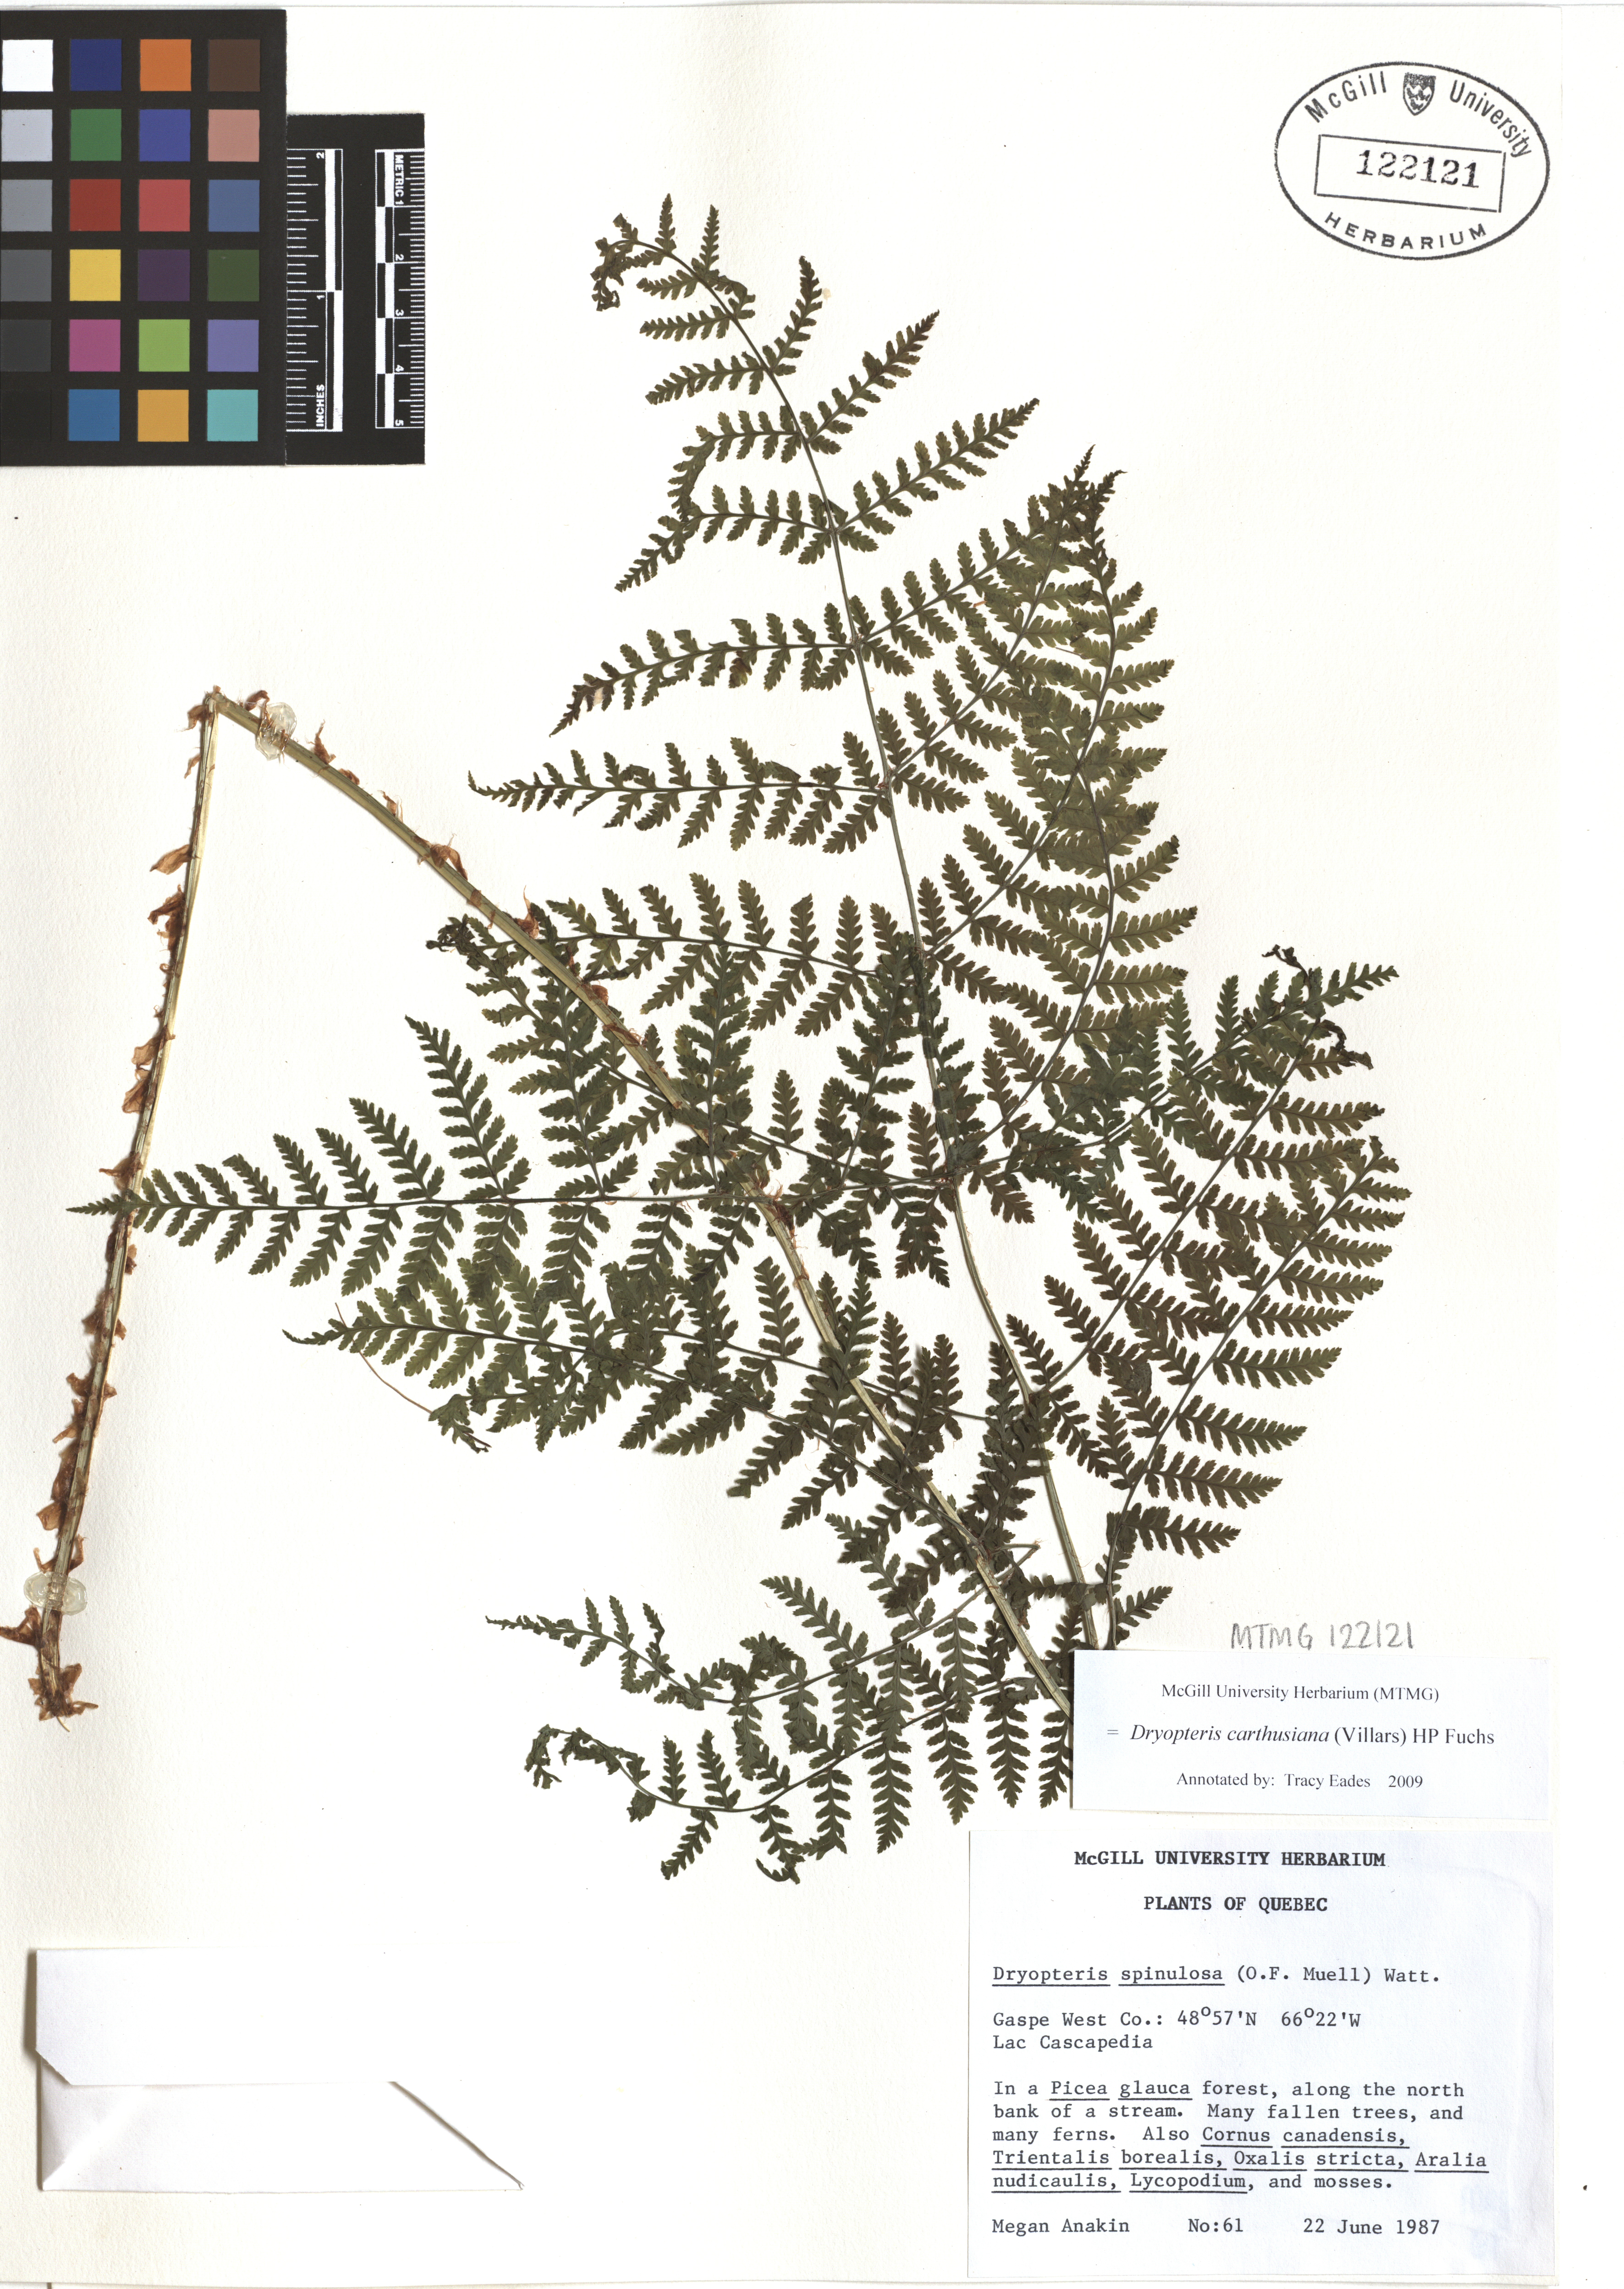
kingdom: Plantae
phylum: Tracheophyta
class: Polypodiopsida
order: Polypodiales
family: Dryopteridaceae
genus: Dryopteris
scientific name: Dryopteris carthusiana
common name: Narrow buckler-fern
